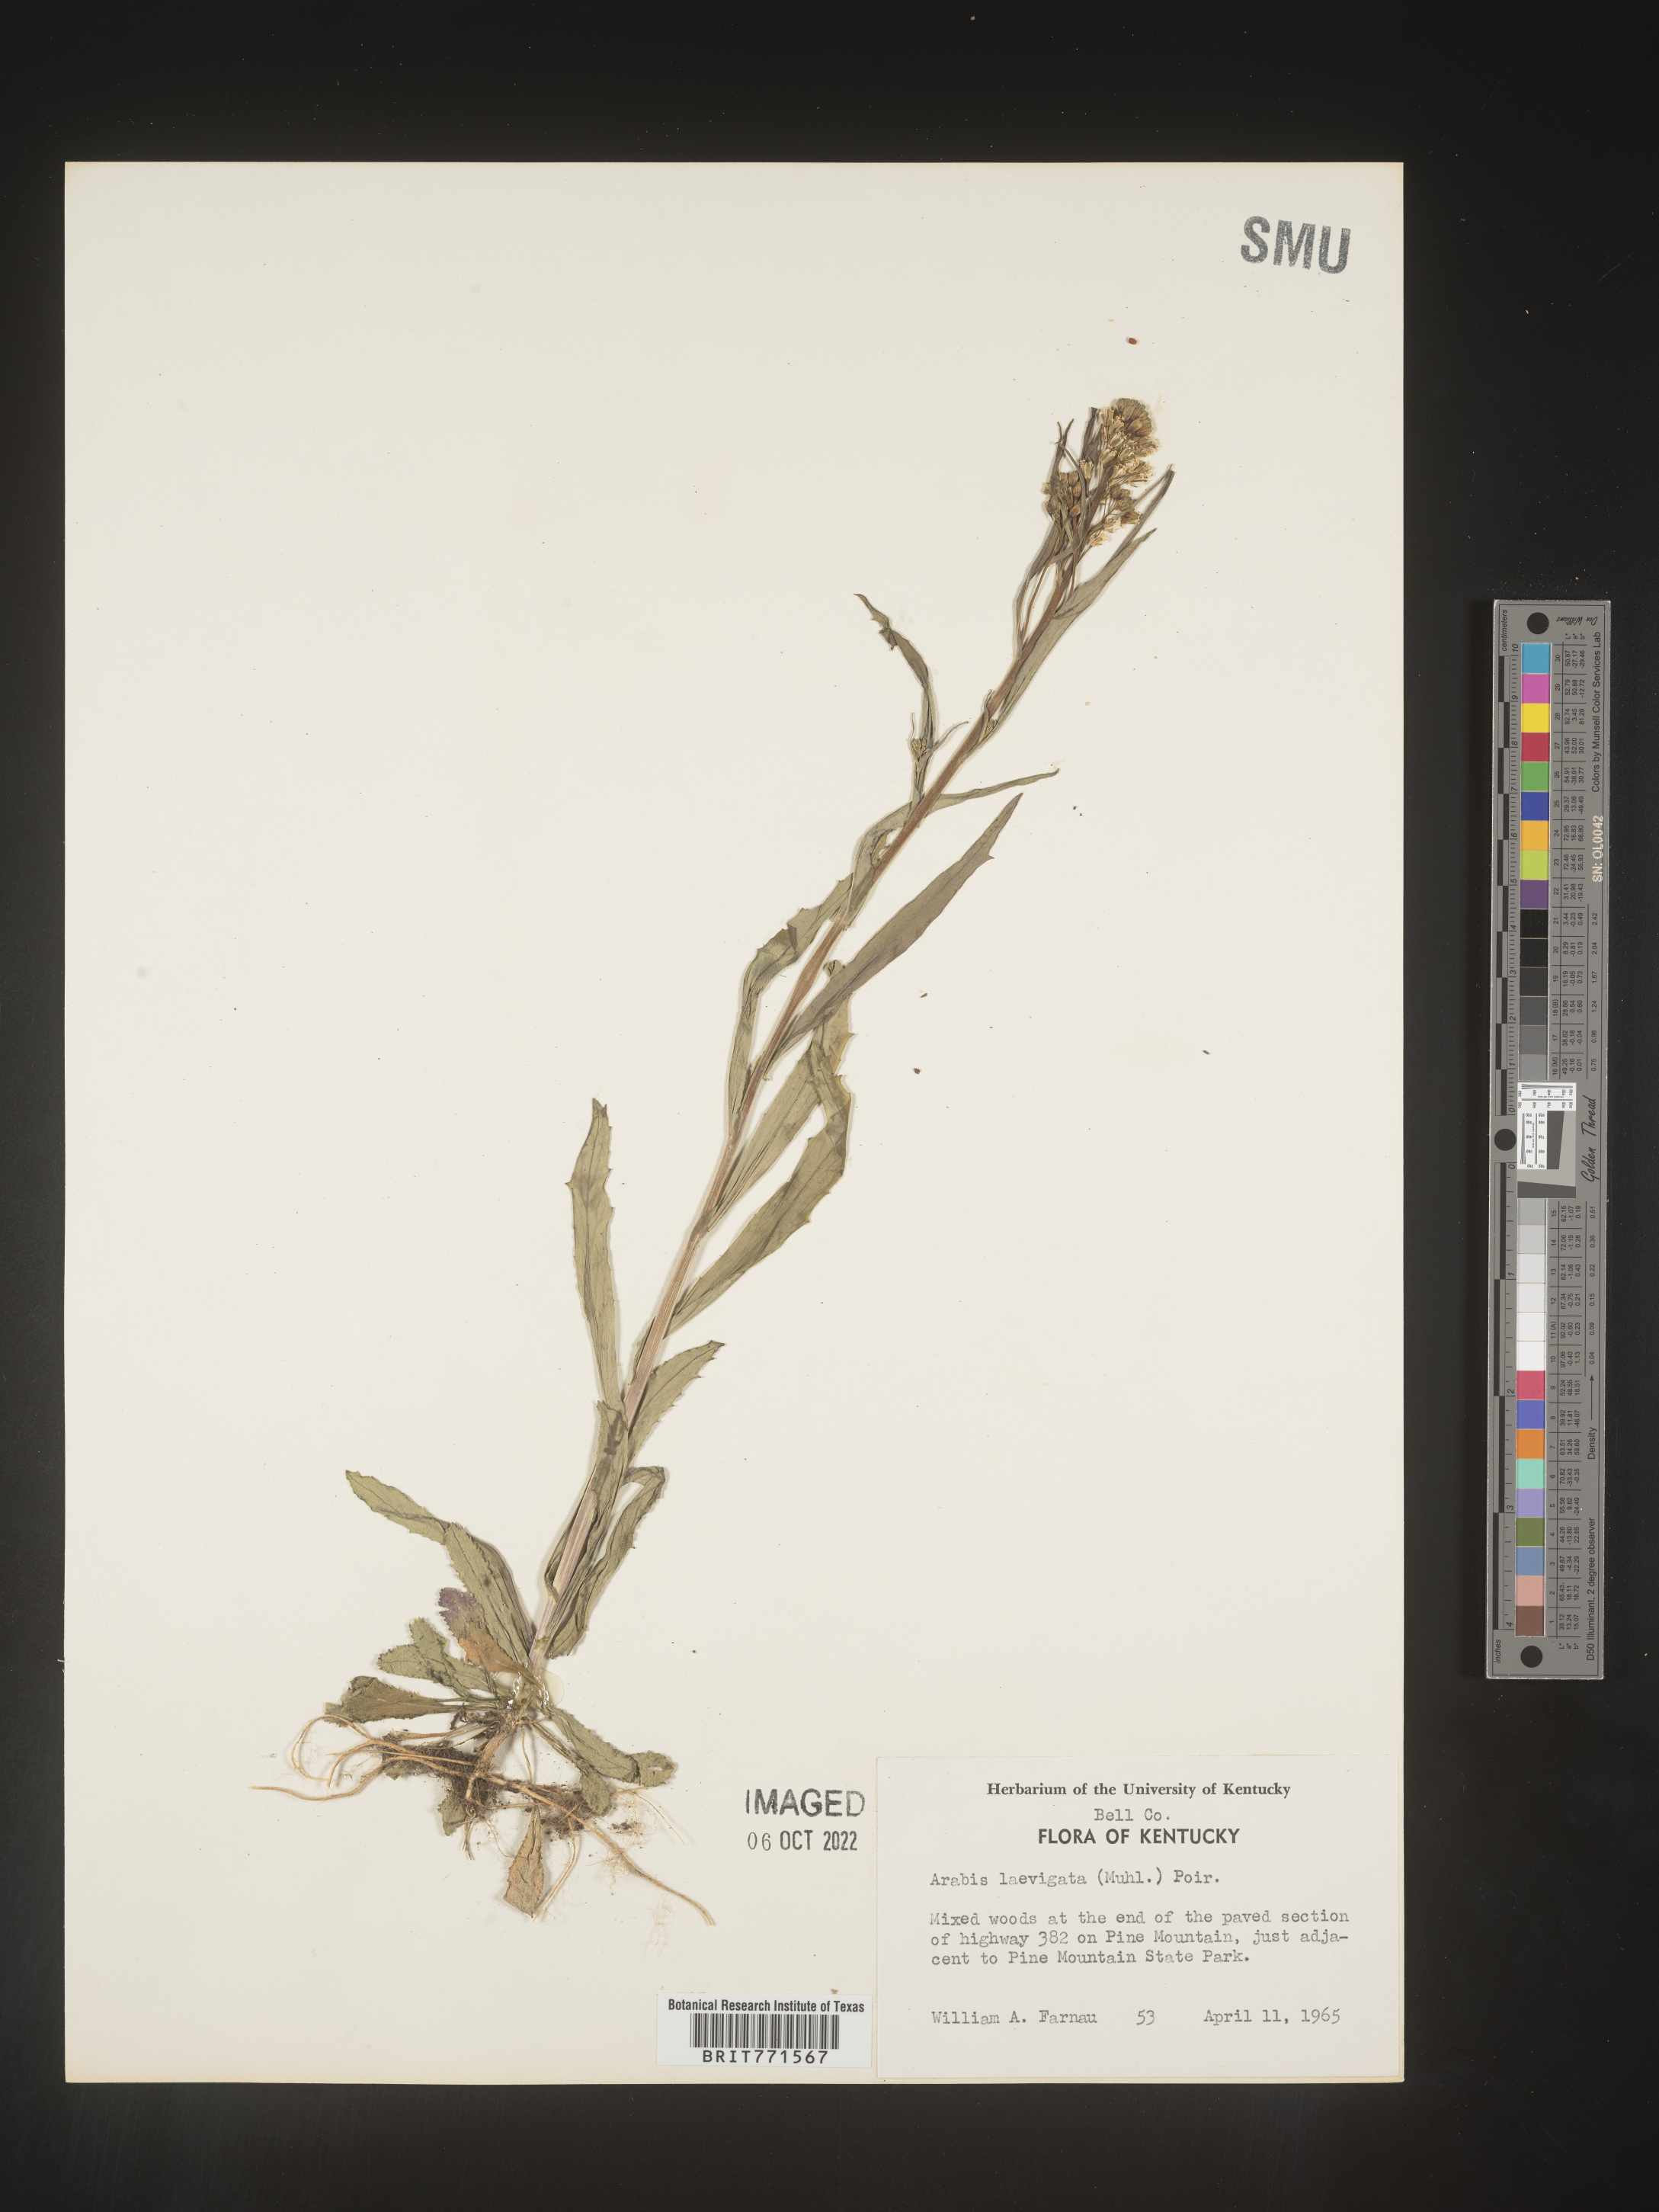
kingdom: Plantae
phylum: Tracheophyta
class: Magnoliopsida
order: Brassicales
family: Brassicaceae
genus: Arabis
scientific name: Arabis laevigata
